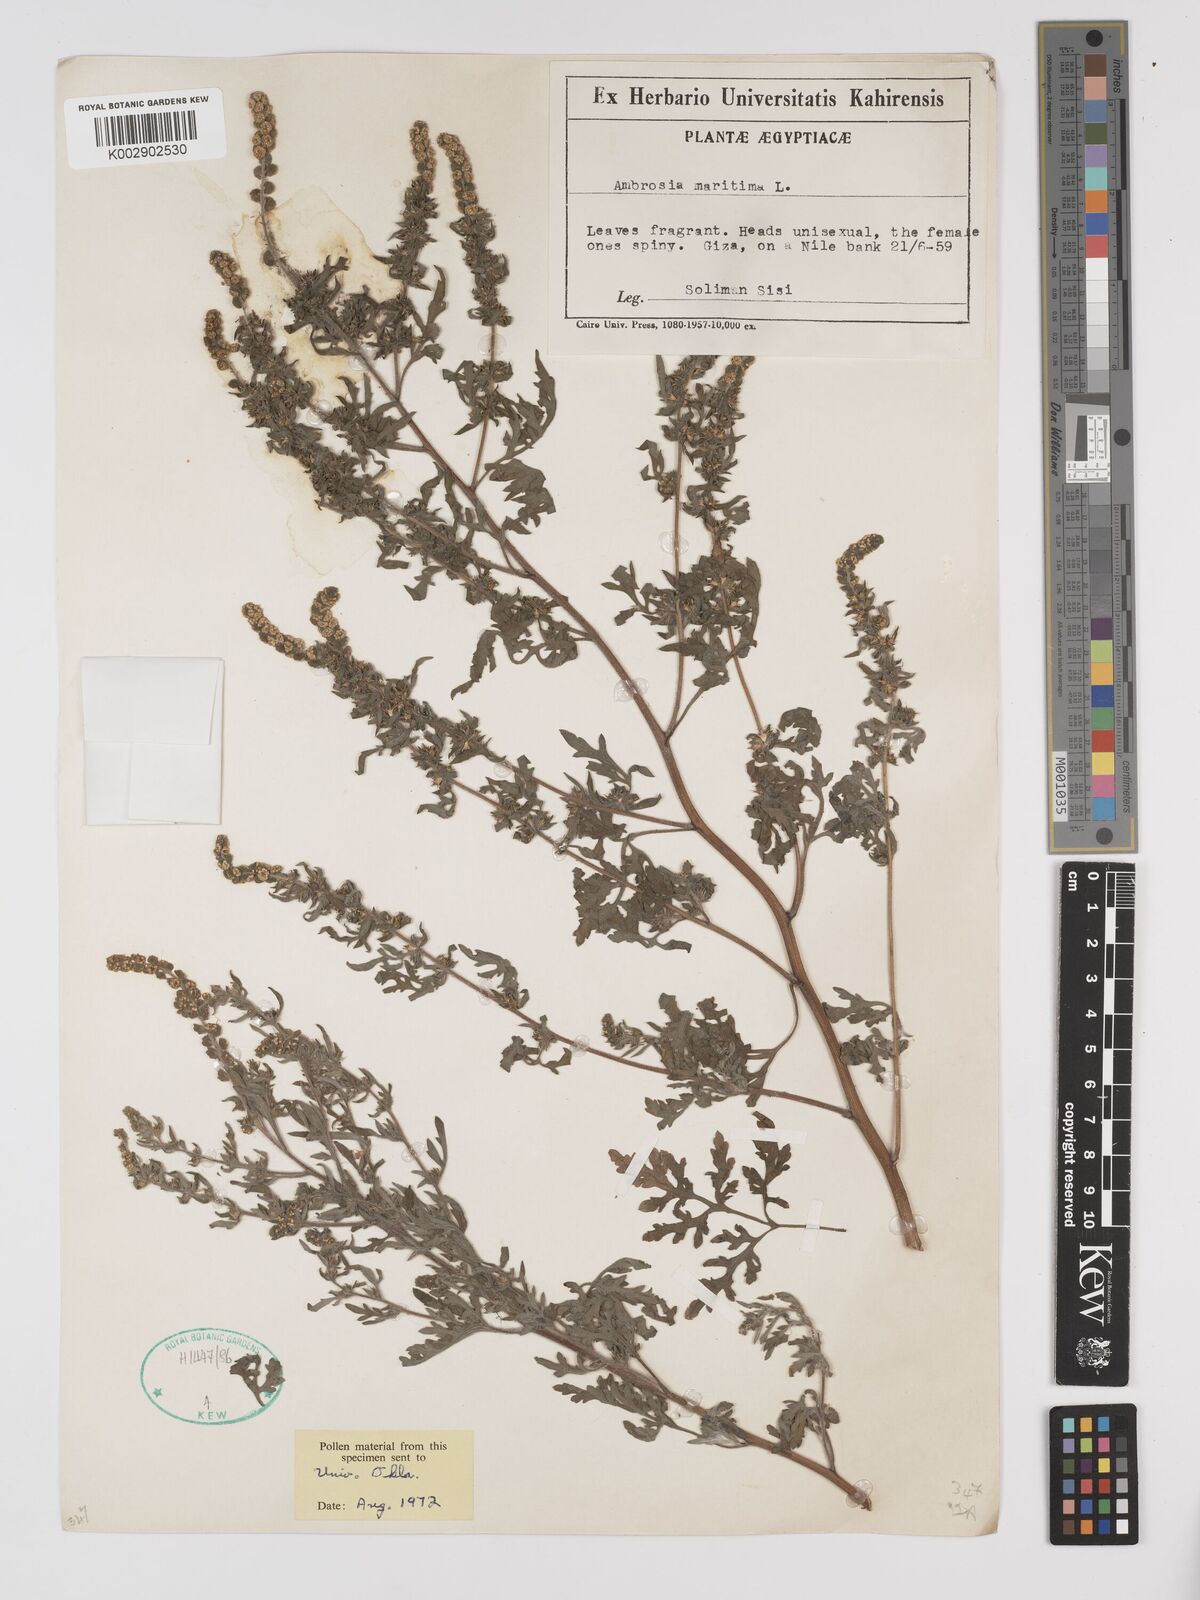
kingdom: Plantae
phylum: Tracheophyta
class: Magnoliopsida
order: Asterales
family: Asteraceae
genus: Ambrosia
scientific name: Ambrosia maritima
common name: Sea ambrosia
